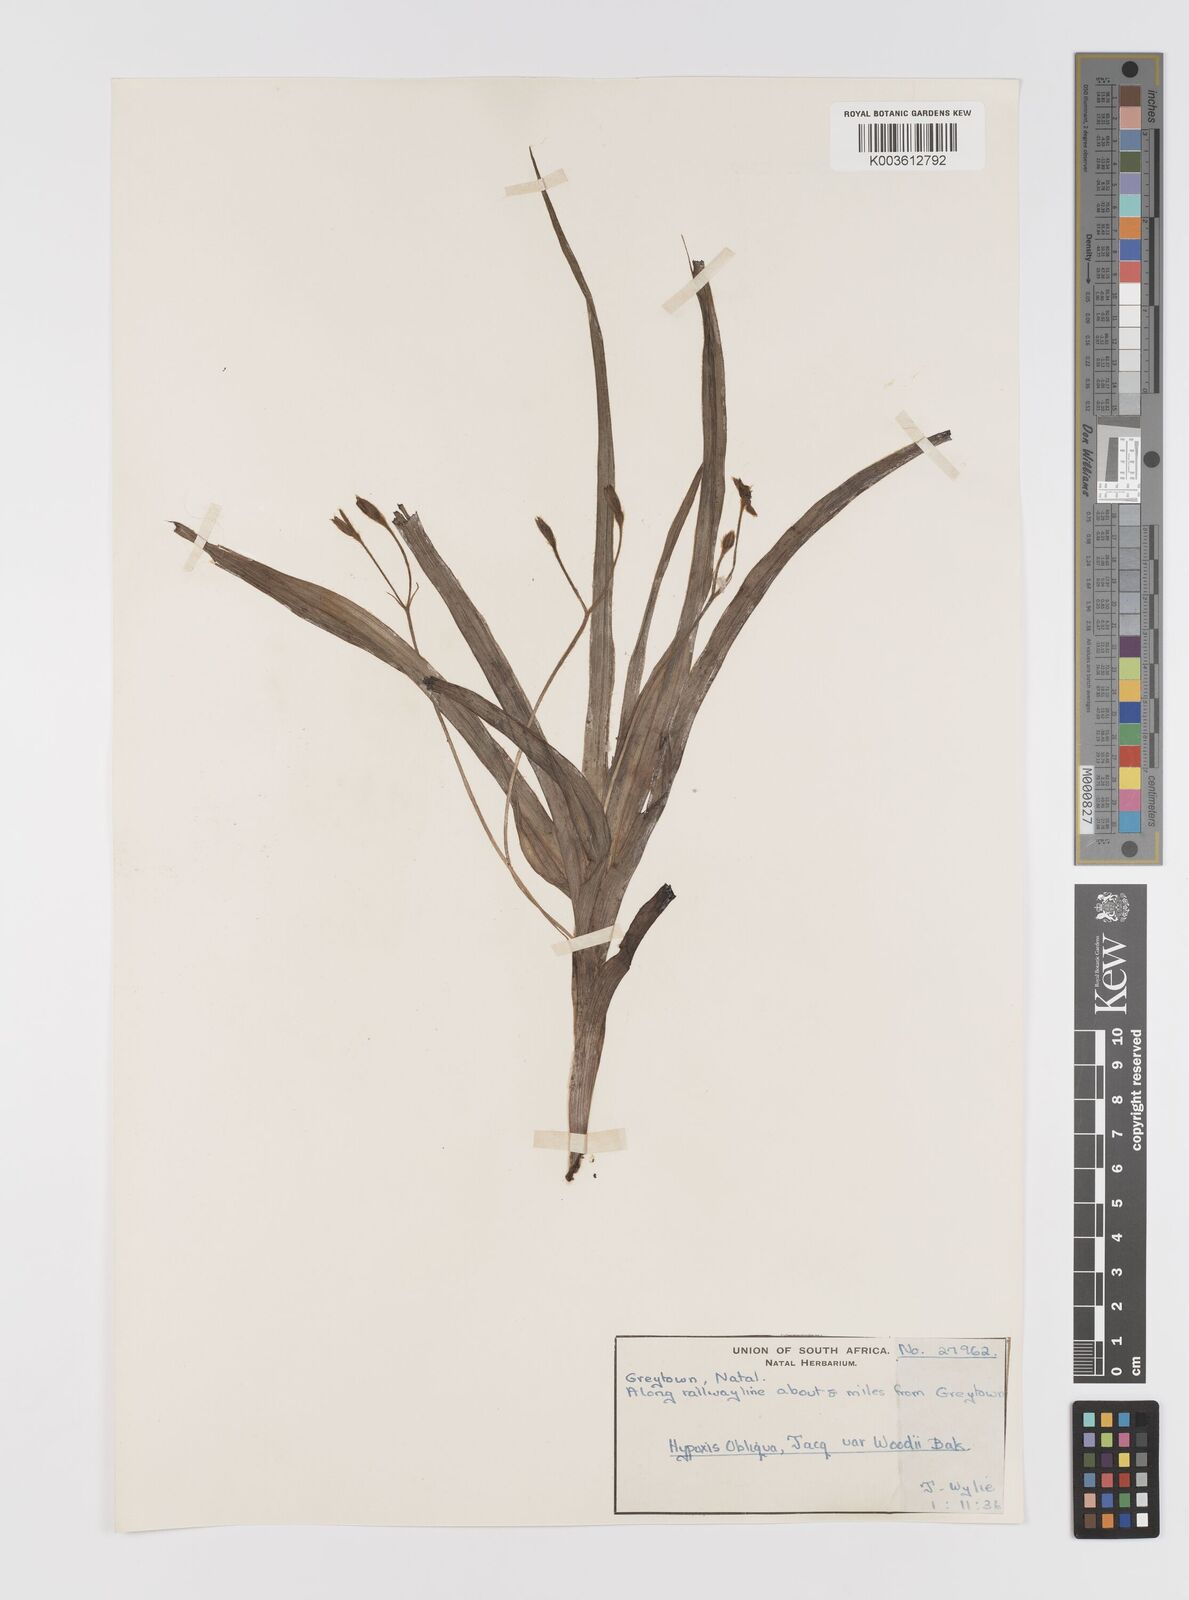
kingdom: Plantae
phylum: Tracheophyta
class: Liliopsida
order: Asparagales
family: Hypoxidaceae
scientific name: Hypoxidaceae
